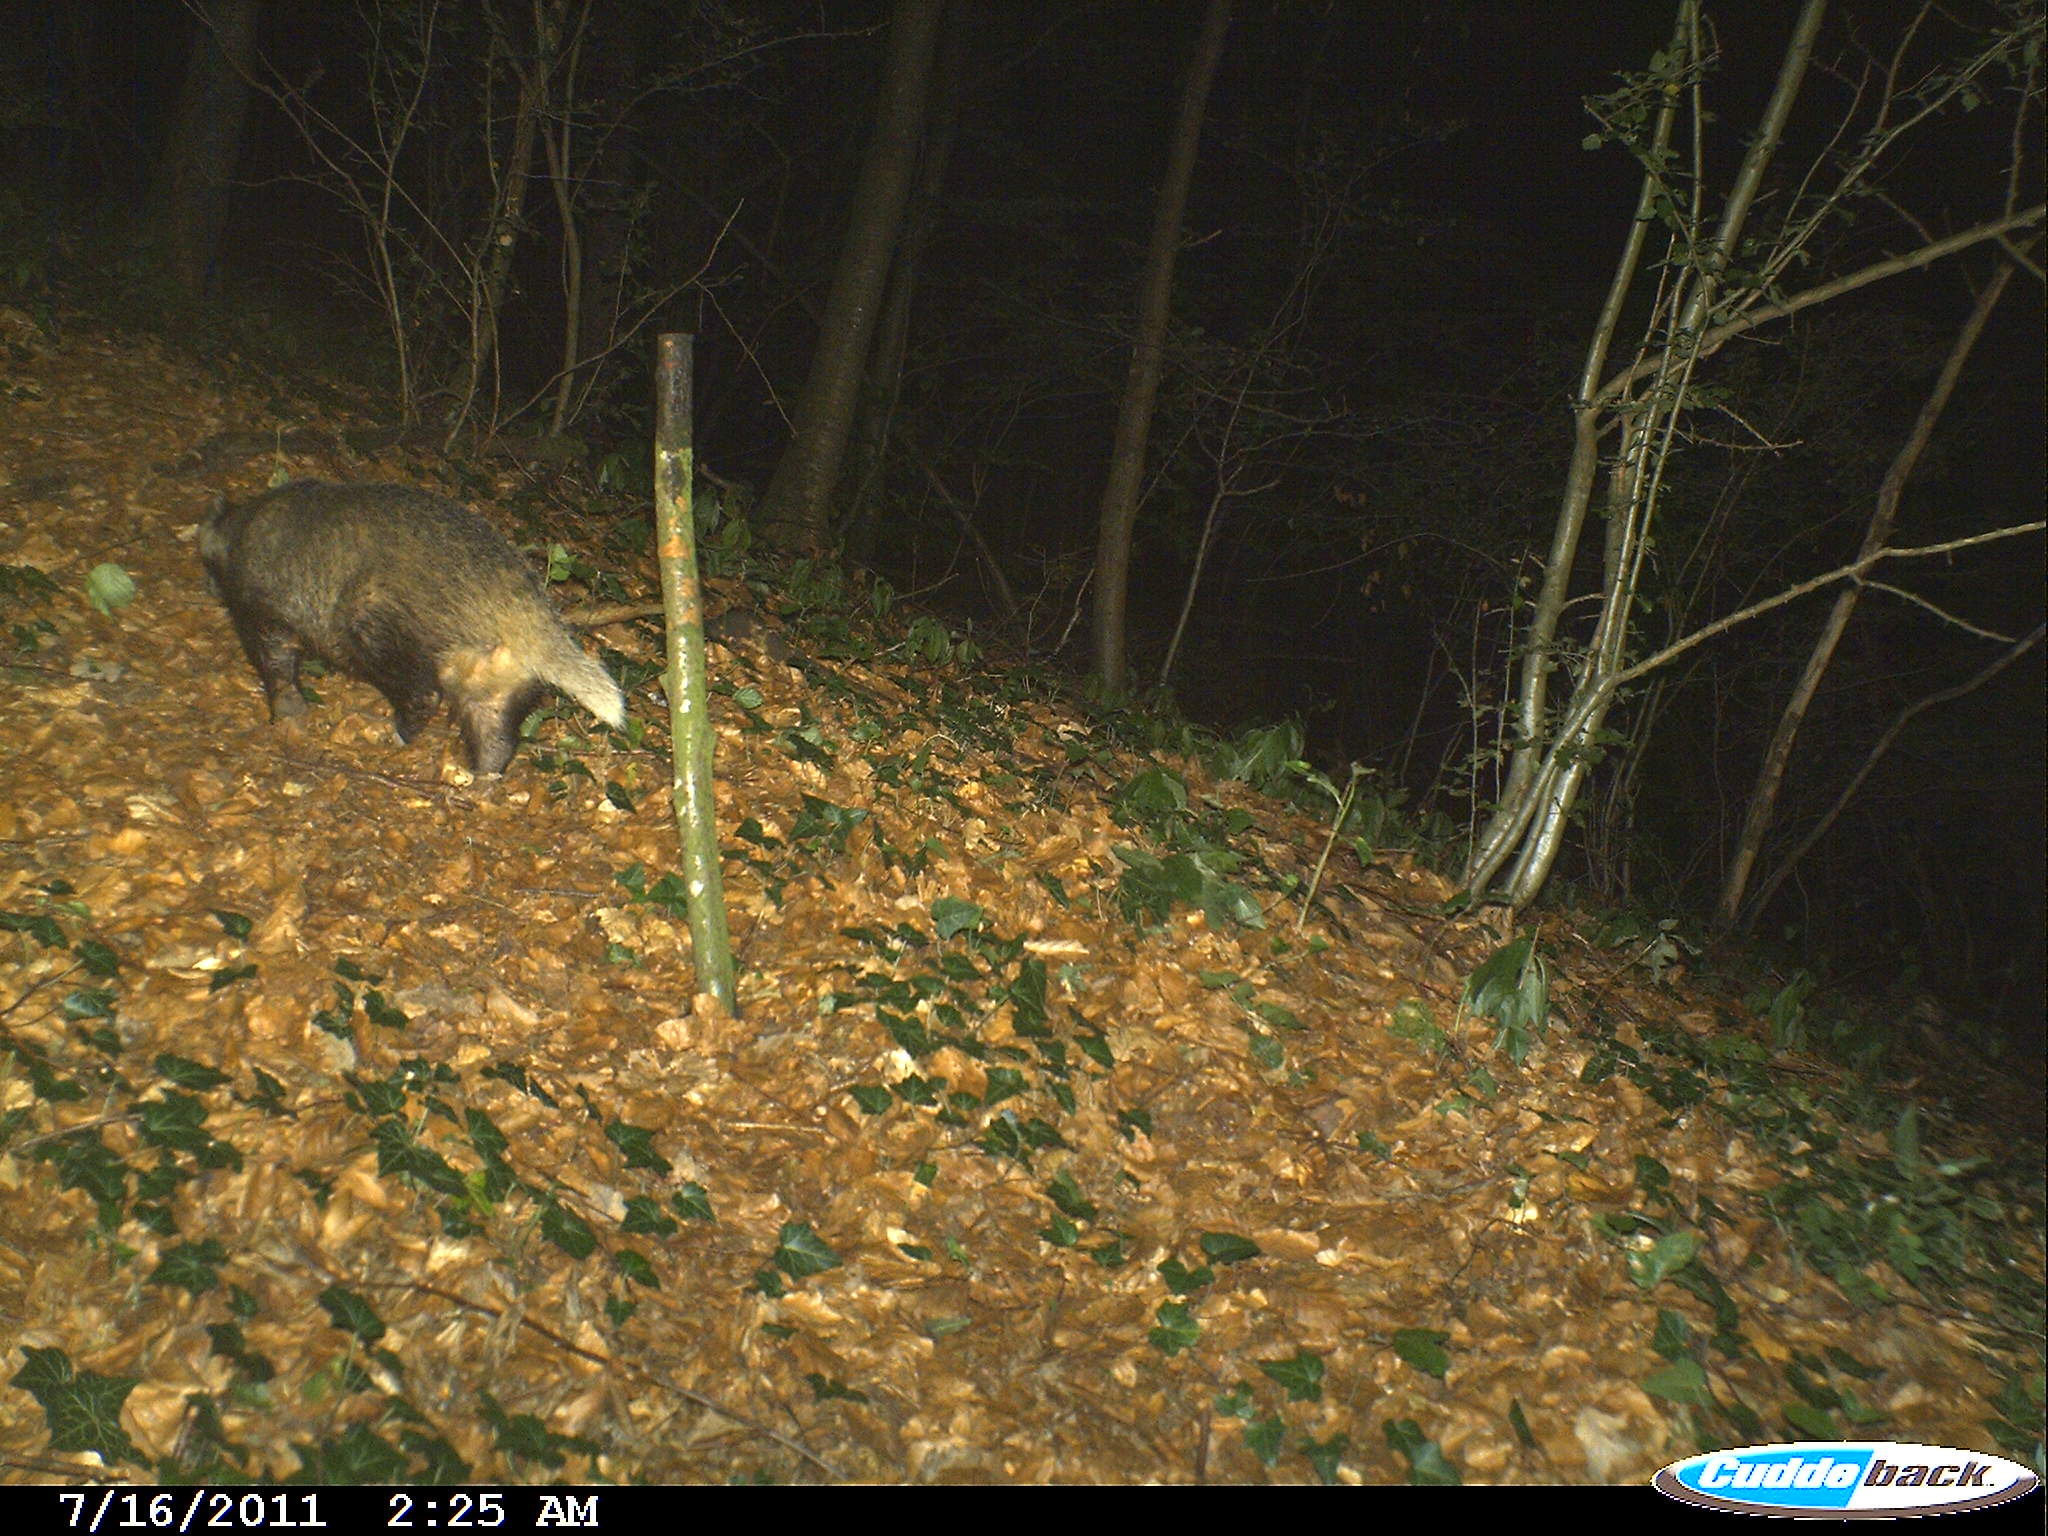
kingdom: Animalia
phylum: Chordata
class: Mammalia
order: Carnivora
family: Mustelidae
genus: Meles
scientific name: Meles meles
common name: Eurasian badger
